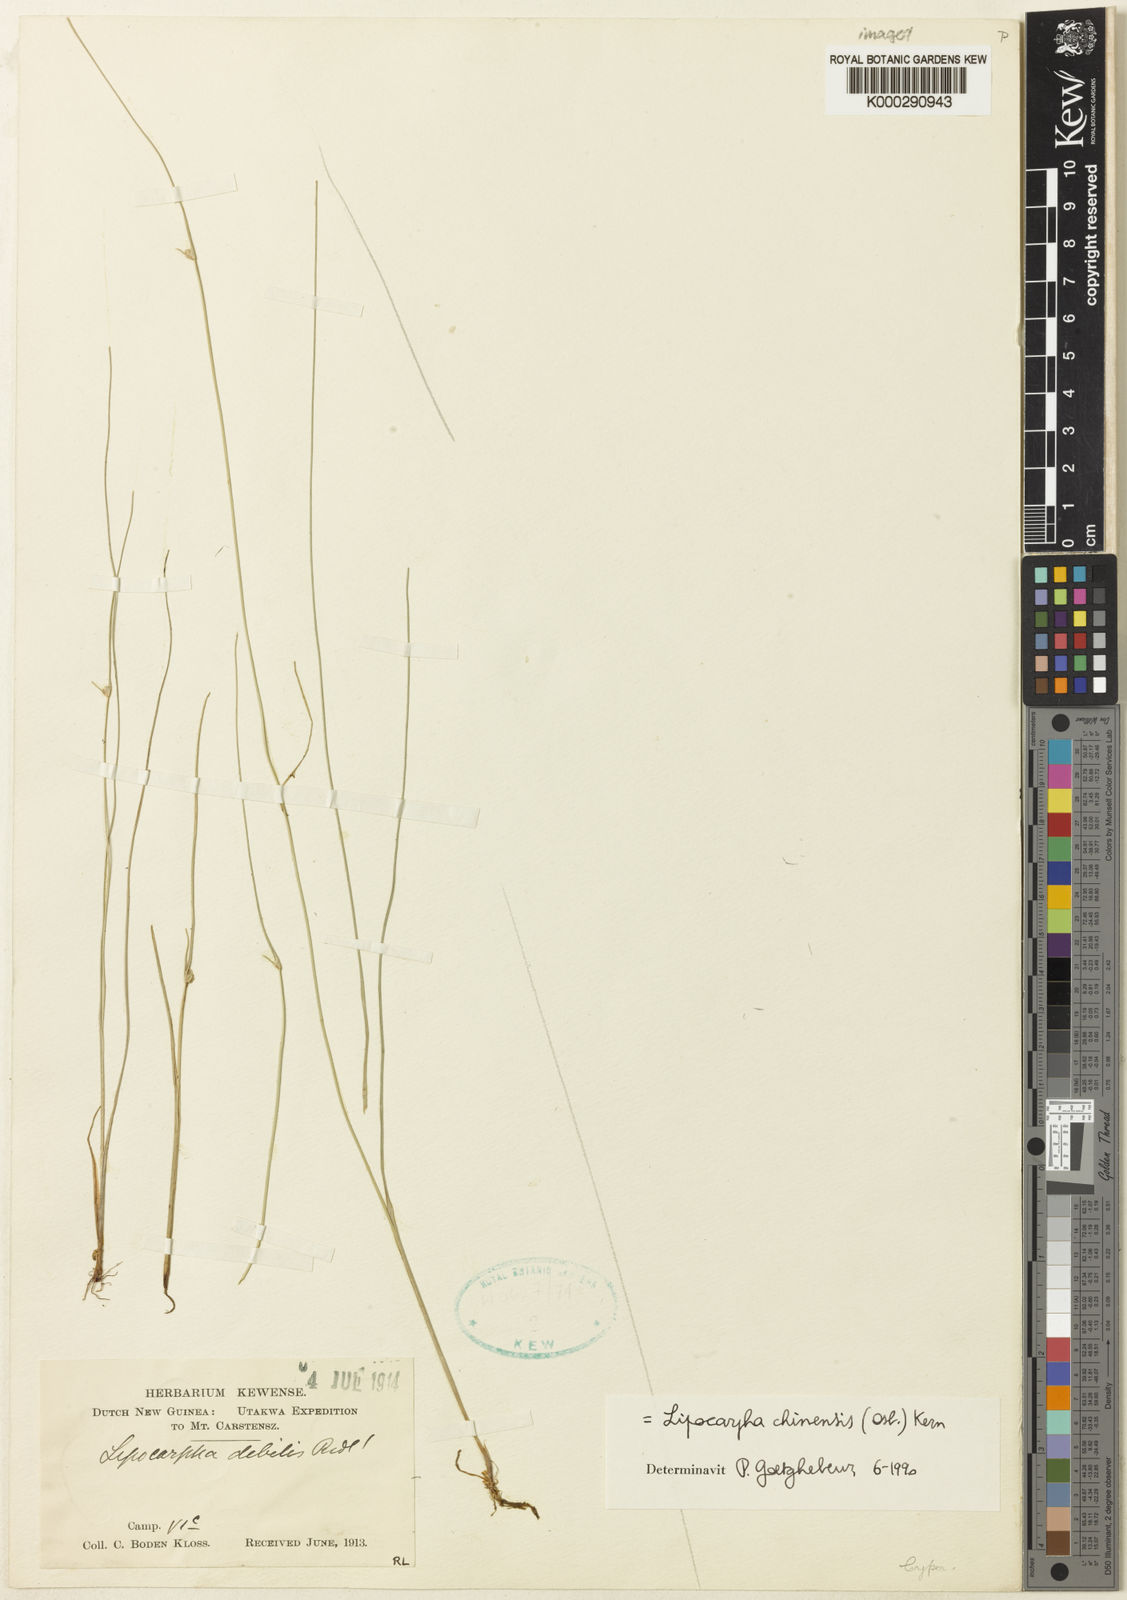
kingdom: Plantae
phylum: Tracheophyta
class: Liliopsida
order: Poales
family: Cyperaceae
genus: Cyperus
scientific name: Cyperus albescens
